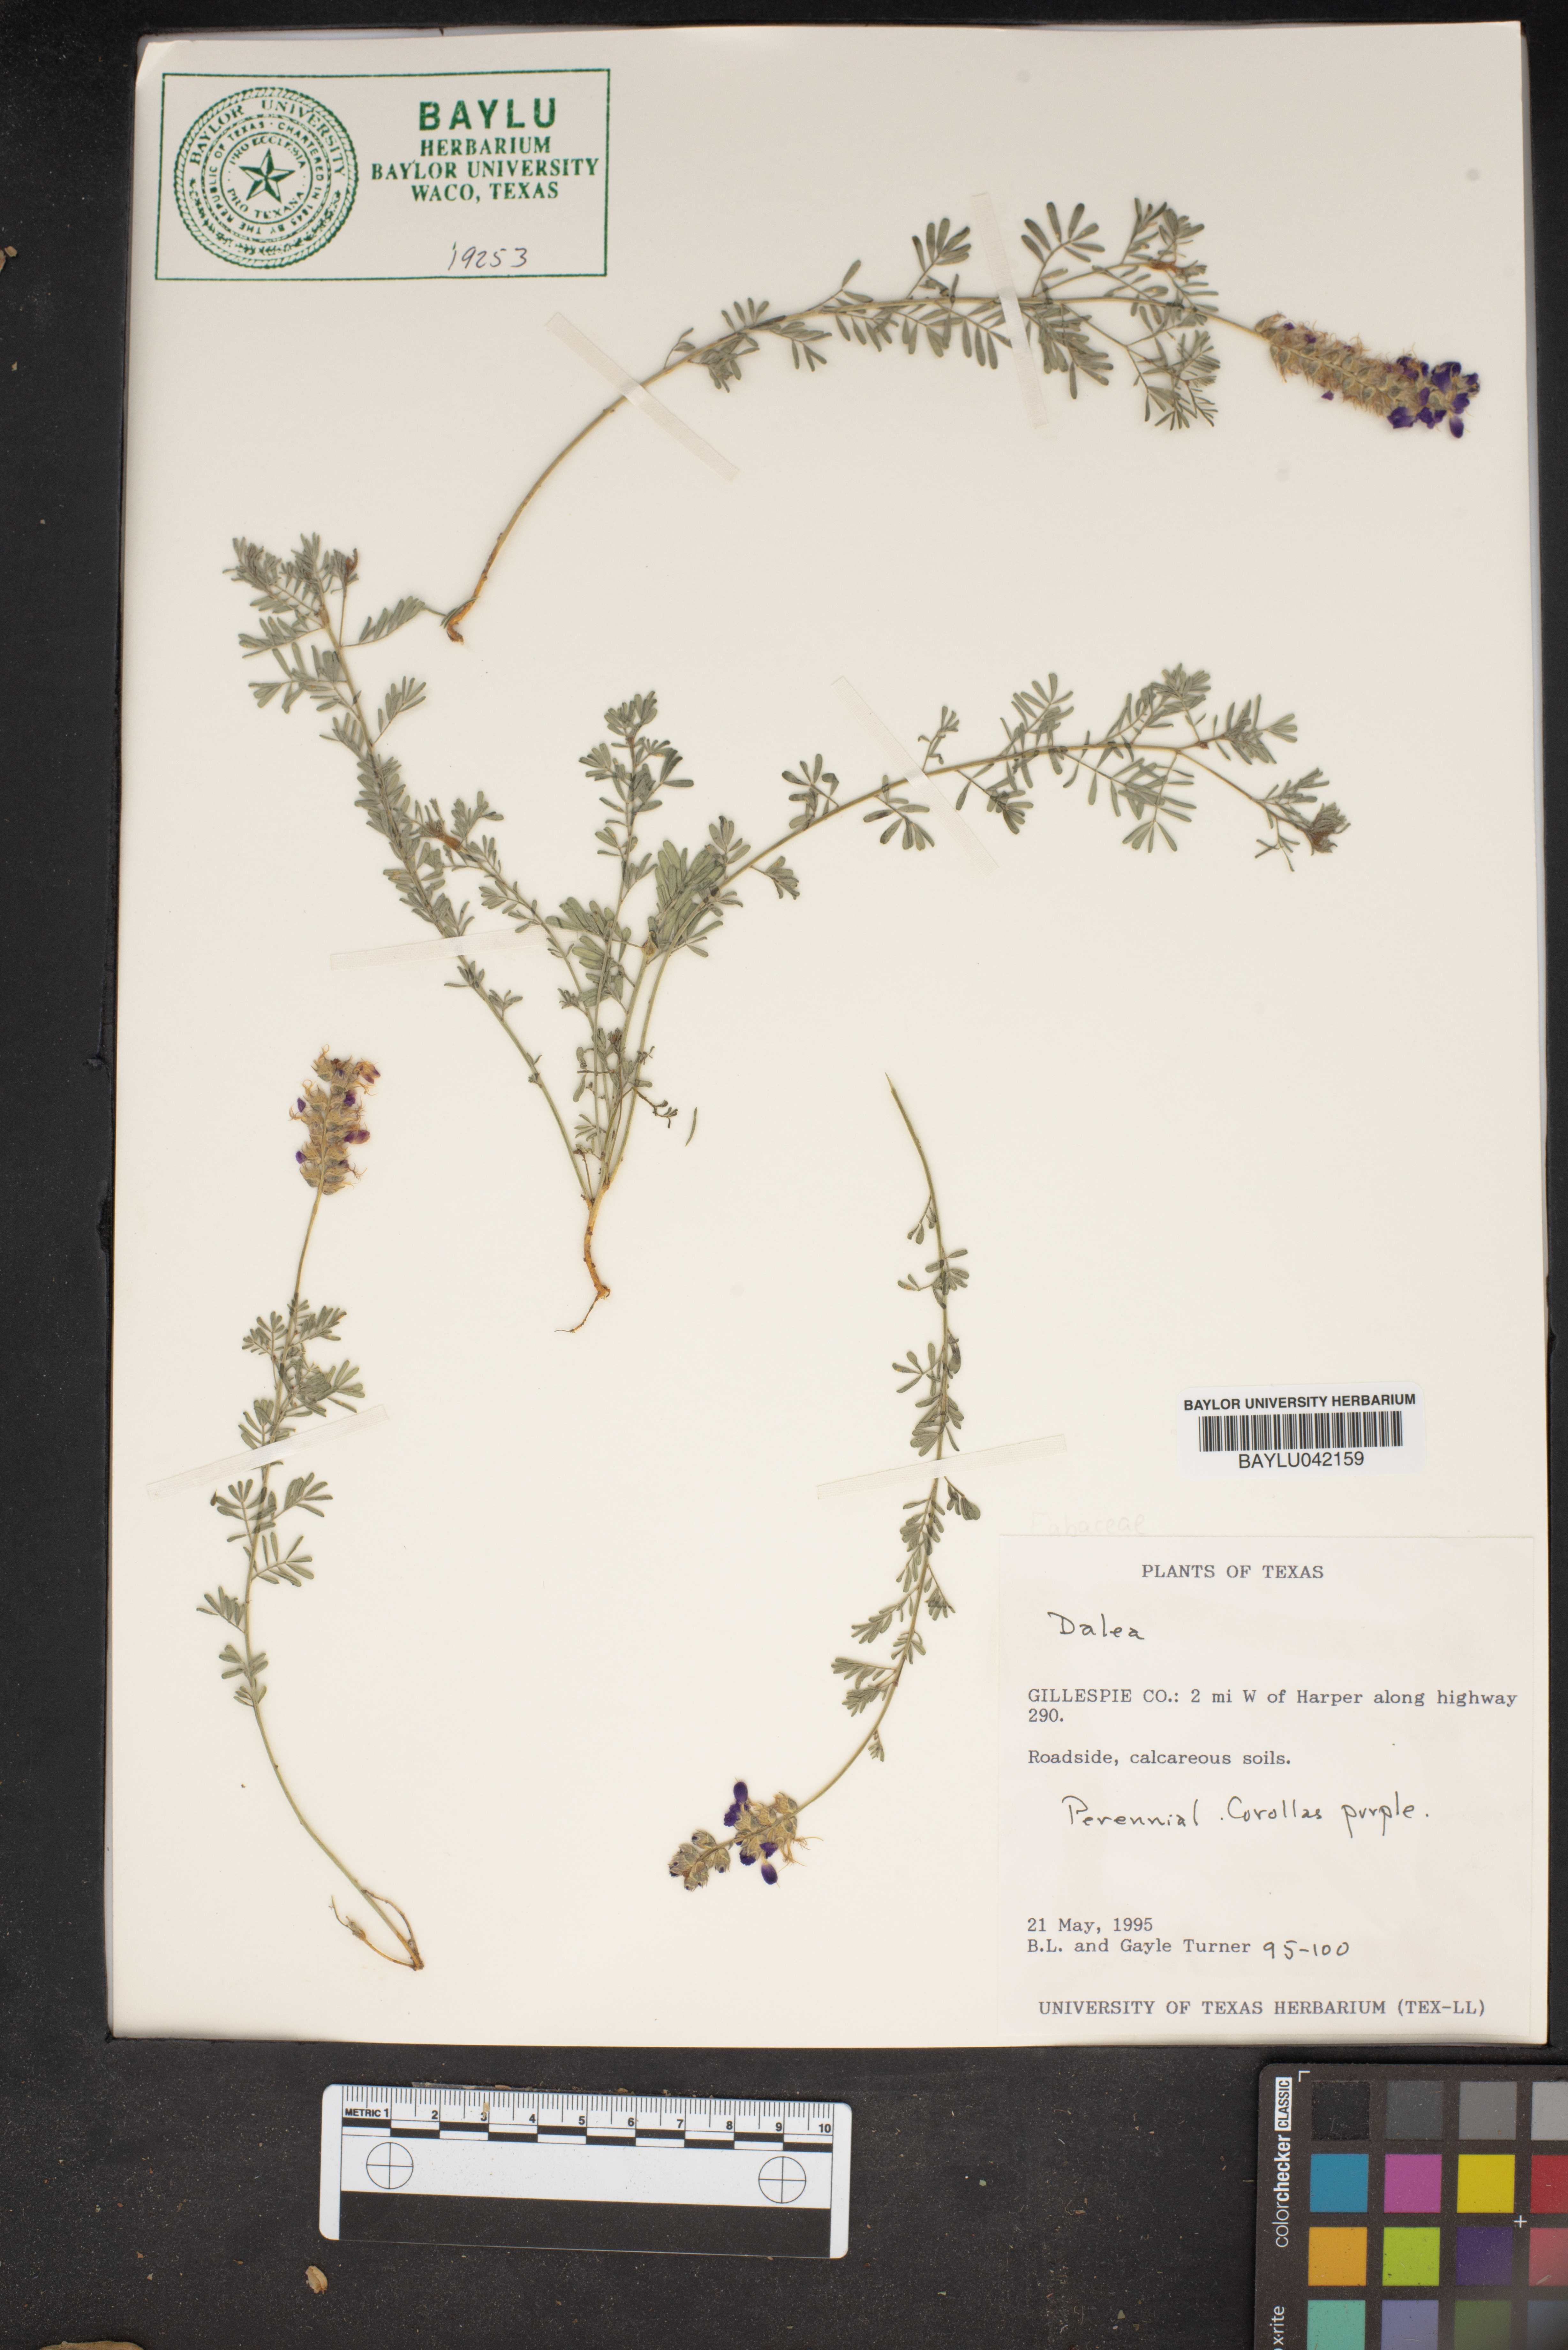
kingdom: Plantae
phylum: Tracheophyta
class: Magnoliopsida
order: Fabales
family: Fabaceae
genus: Dalea
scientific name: Dalea
